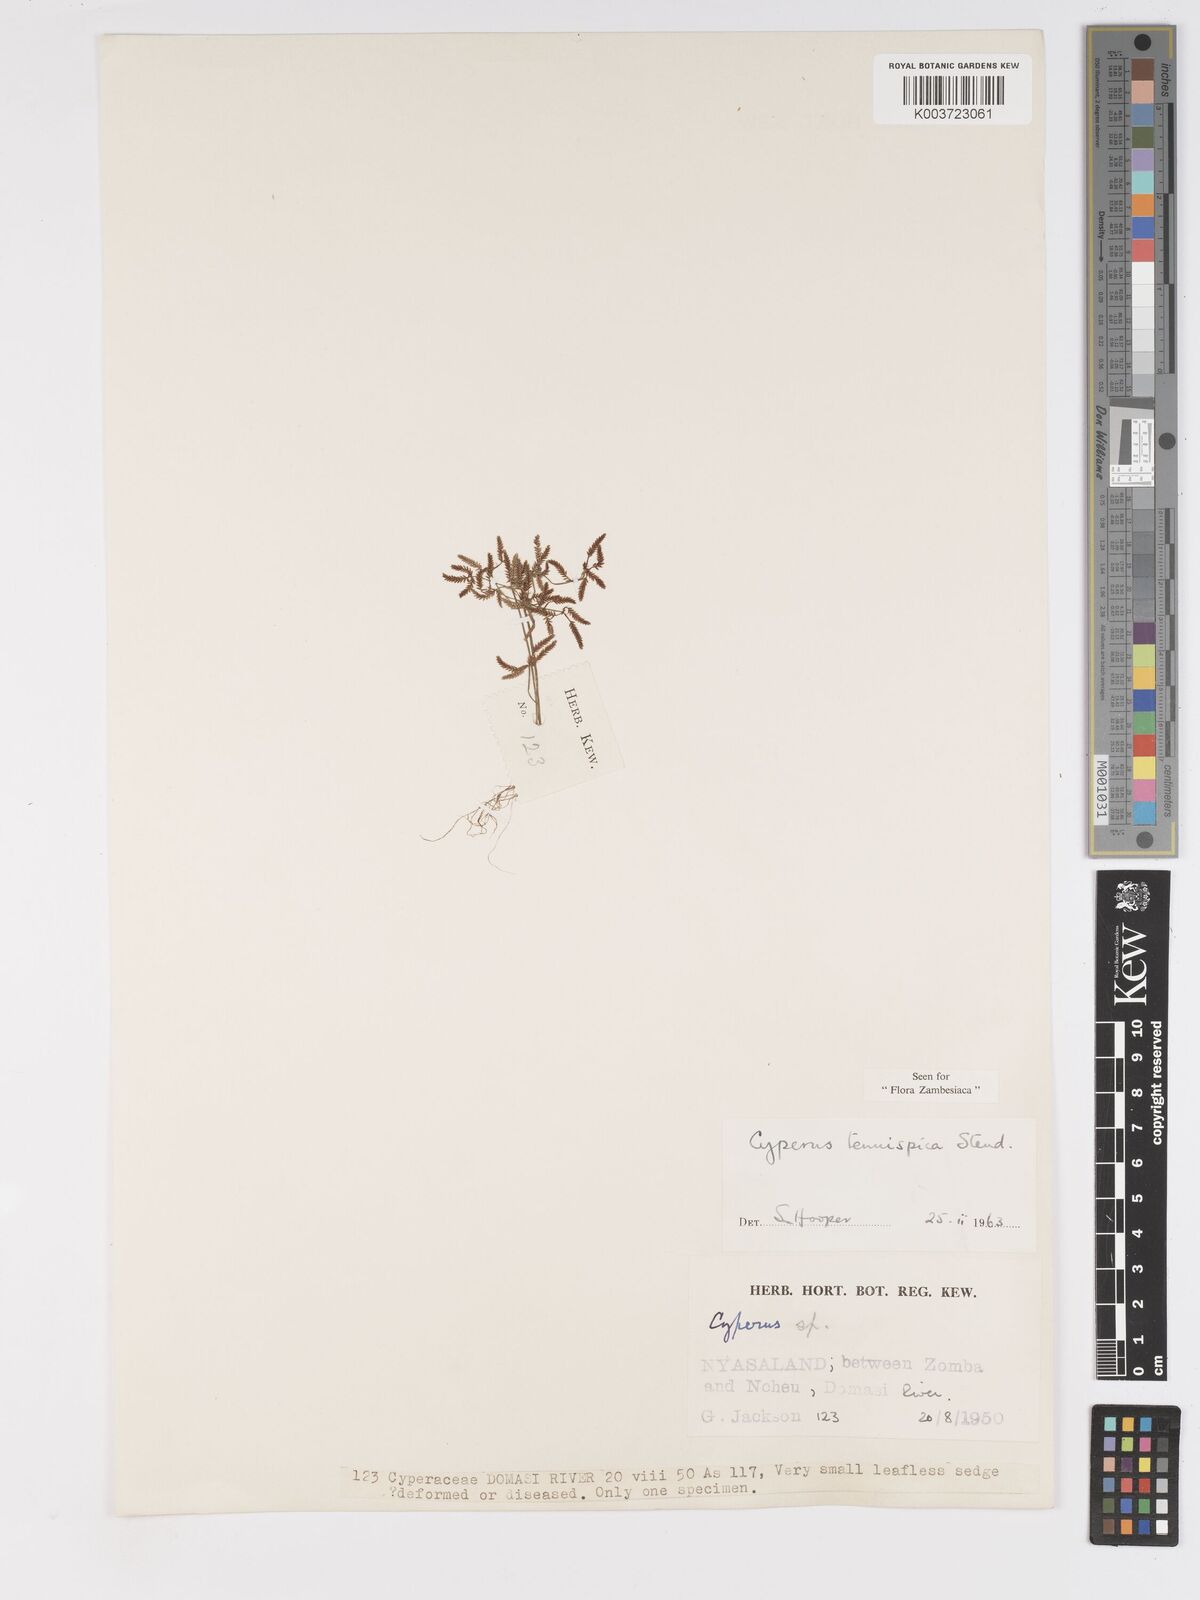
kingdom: Plantae
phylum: Tracheophyta
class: Liliopsida
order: Poales
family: Cyperaceae
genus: Cyperus
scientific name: Cyperus tenuispica
